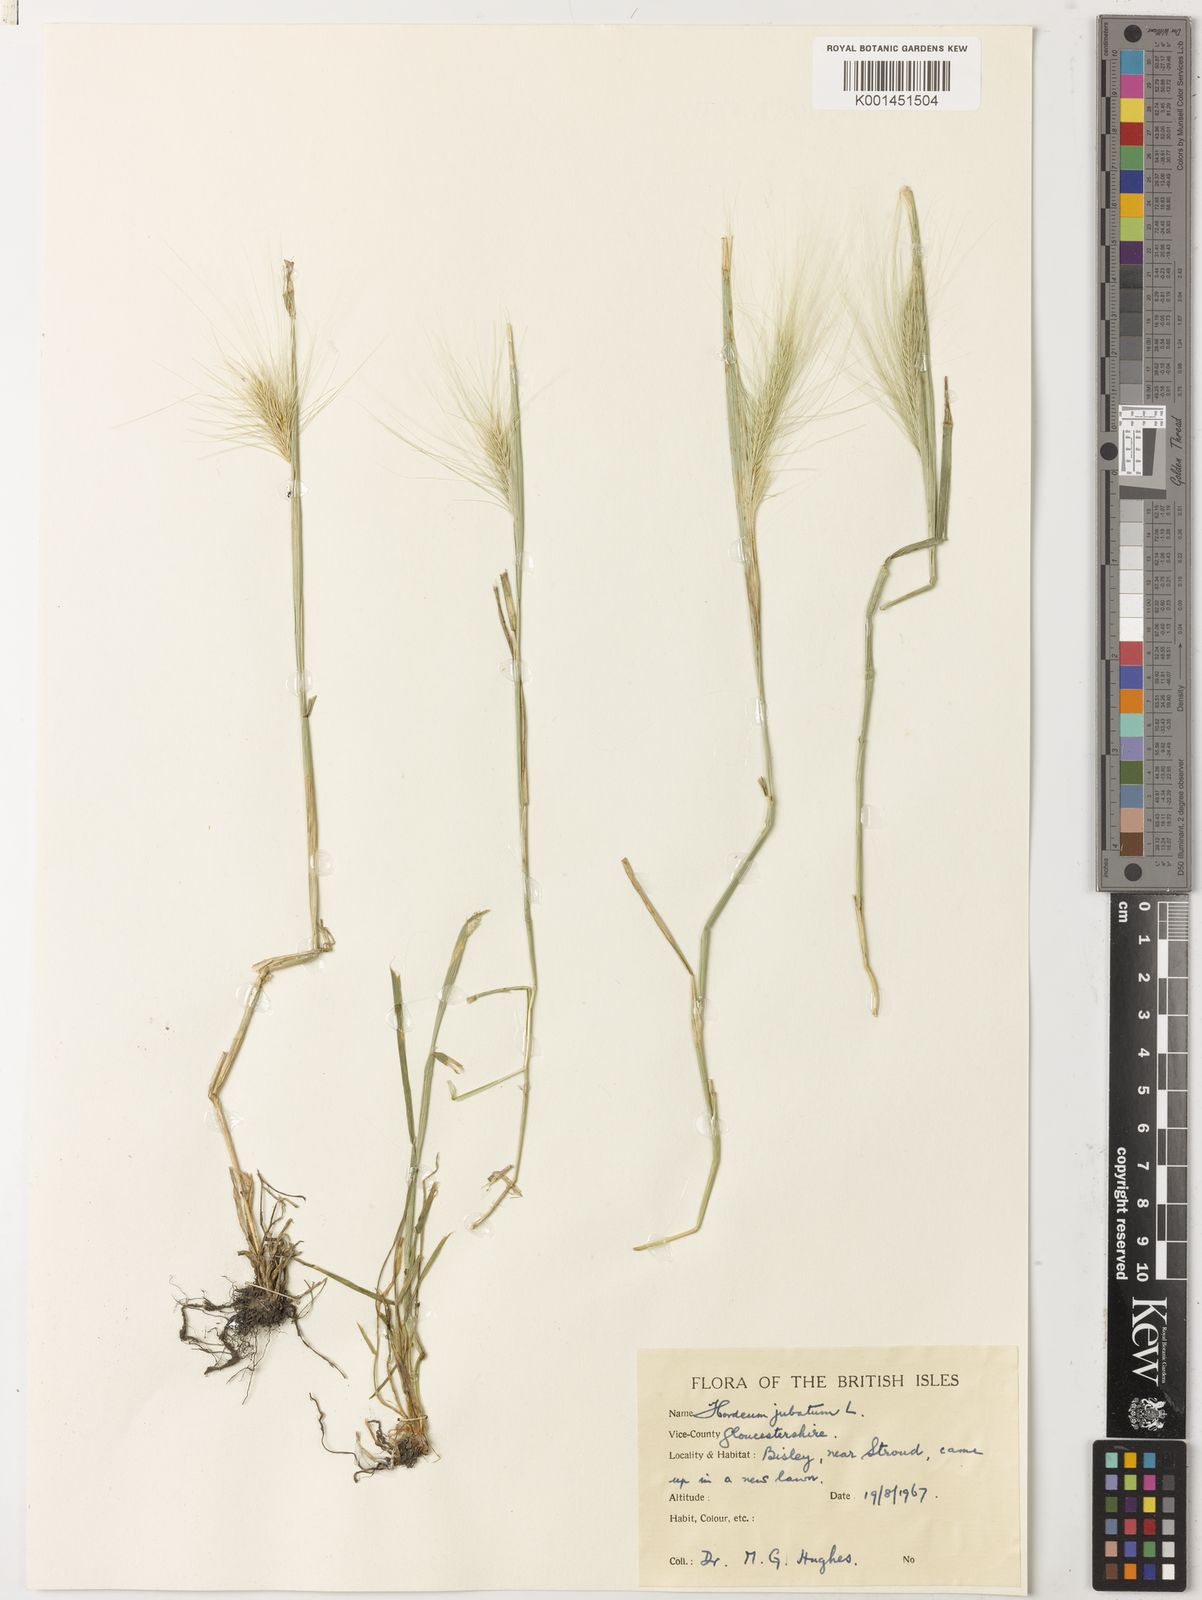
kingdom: Plantae
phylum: Tracheophyta
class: Liliopsida
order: Poales
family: Poaceae
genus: Hordeum
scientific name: Hordeum jubatum
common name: Foxtail barley
